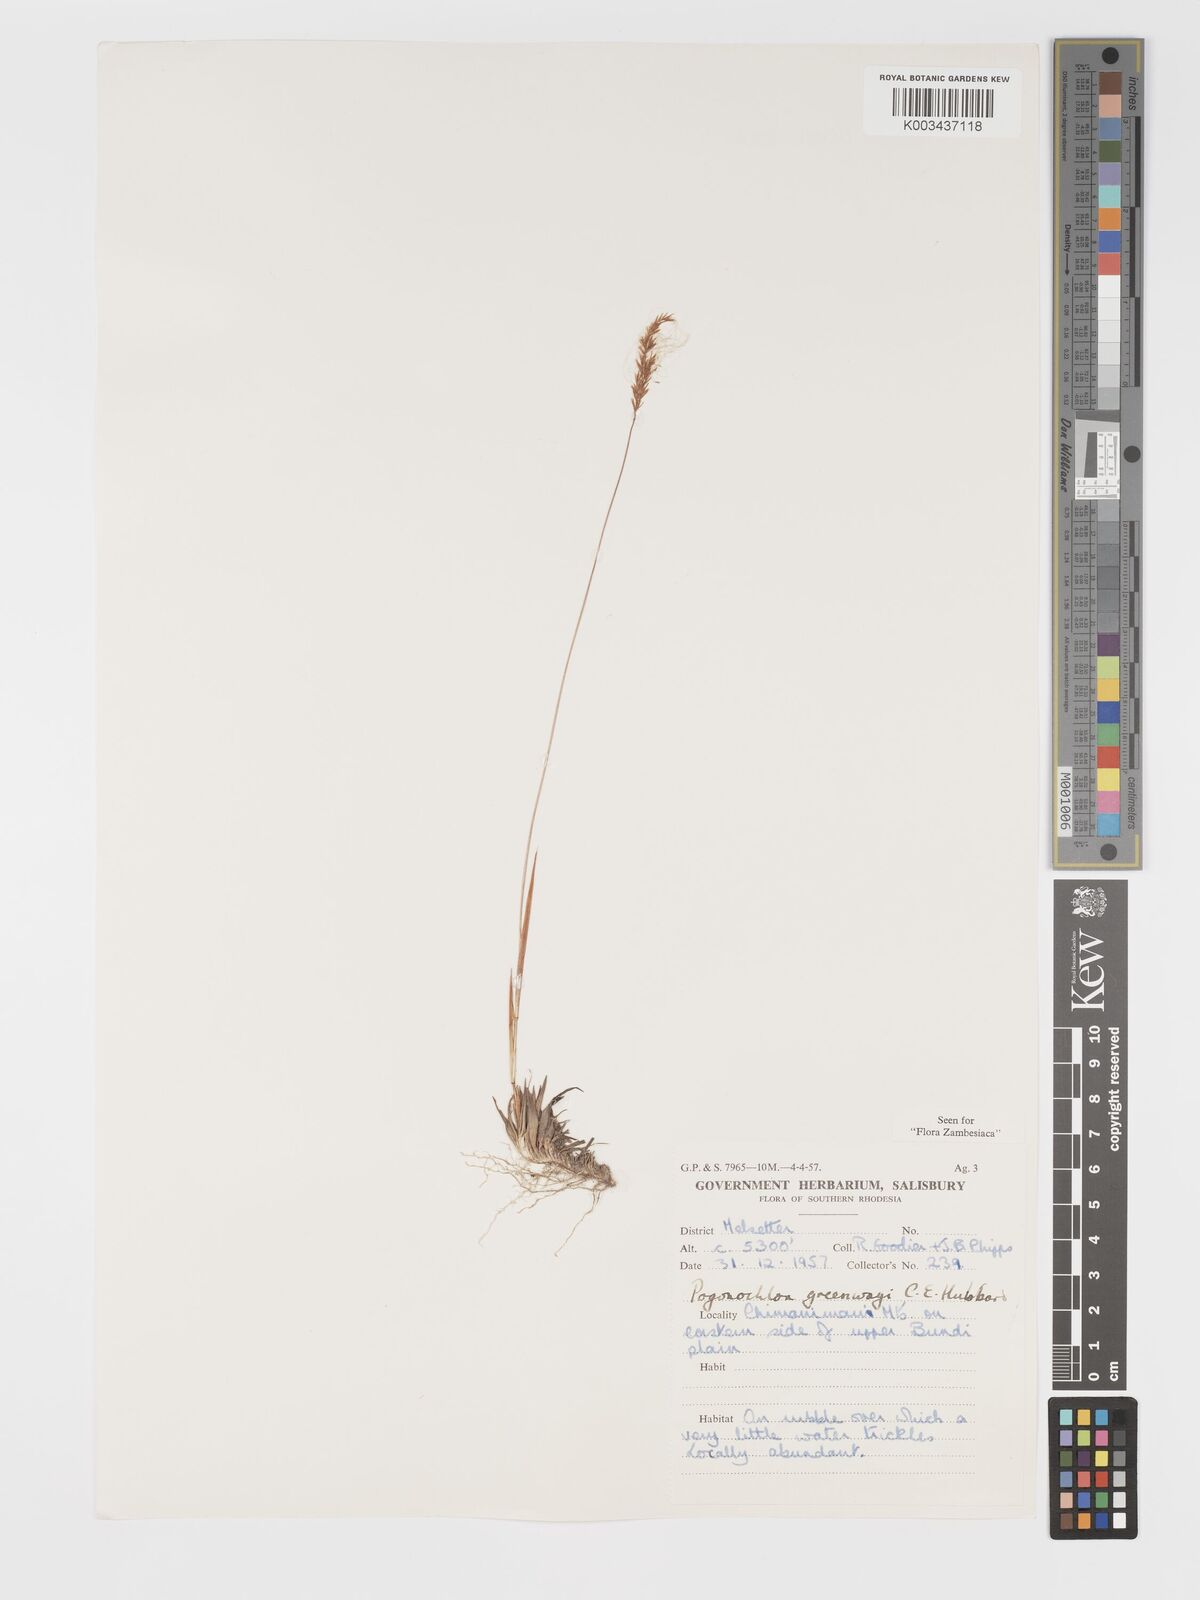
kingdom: Plantae
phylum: Tracheophyta
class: Liliopsida
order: Poales
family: Poaceae
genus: Pogonochloa
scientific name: Pogonochloa greenwayi
